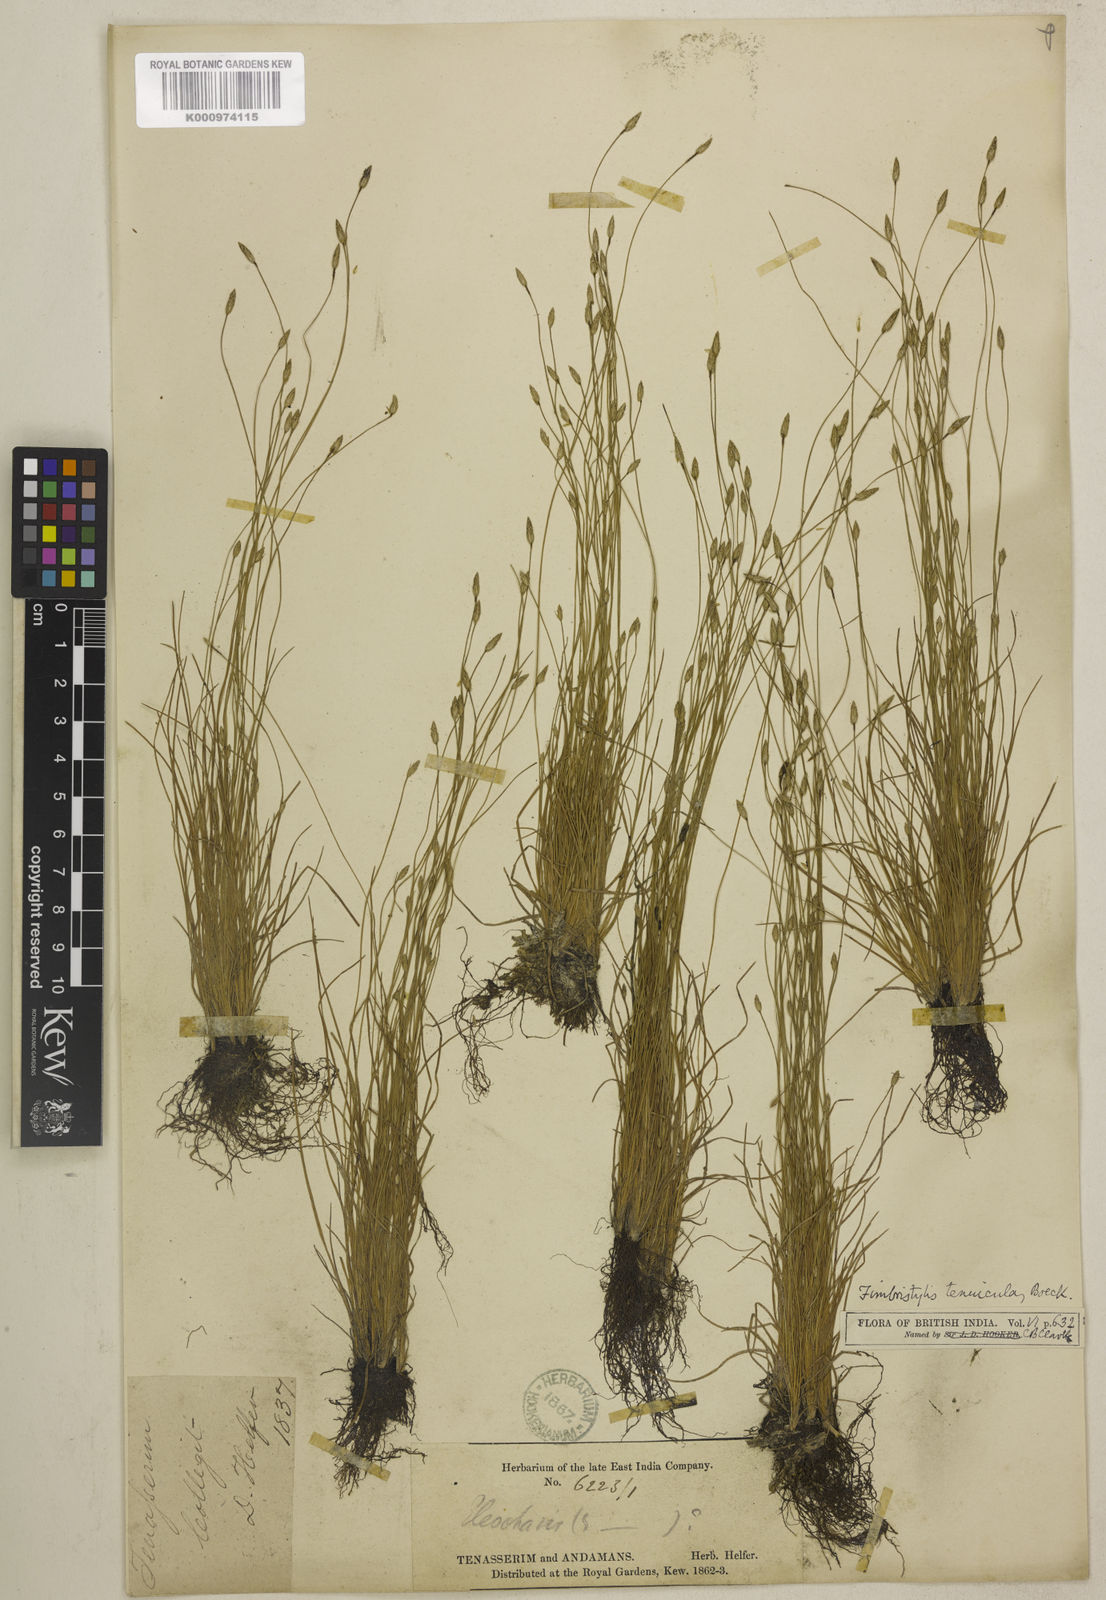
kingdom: Plantae
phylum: Tracheophyta
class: Liliopsida
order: Poales
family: Cyperaceae
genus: Fimbristylis
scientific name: Fimbristylis tenuicula
